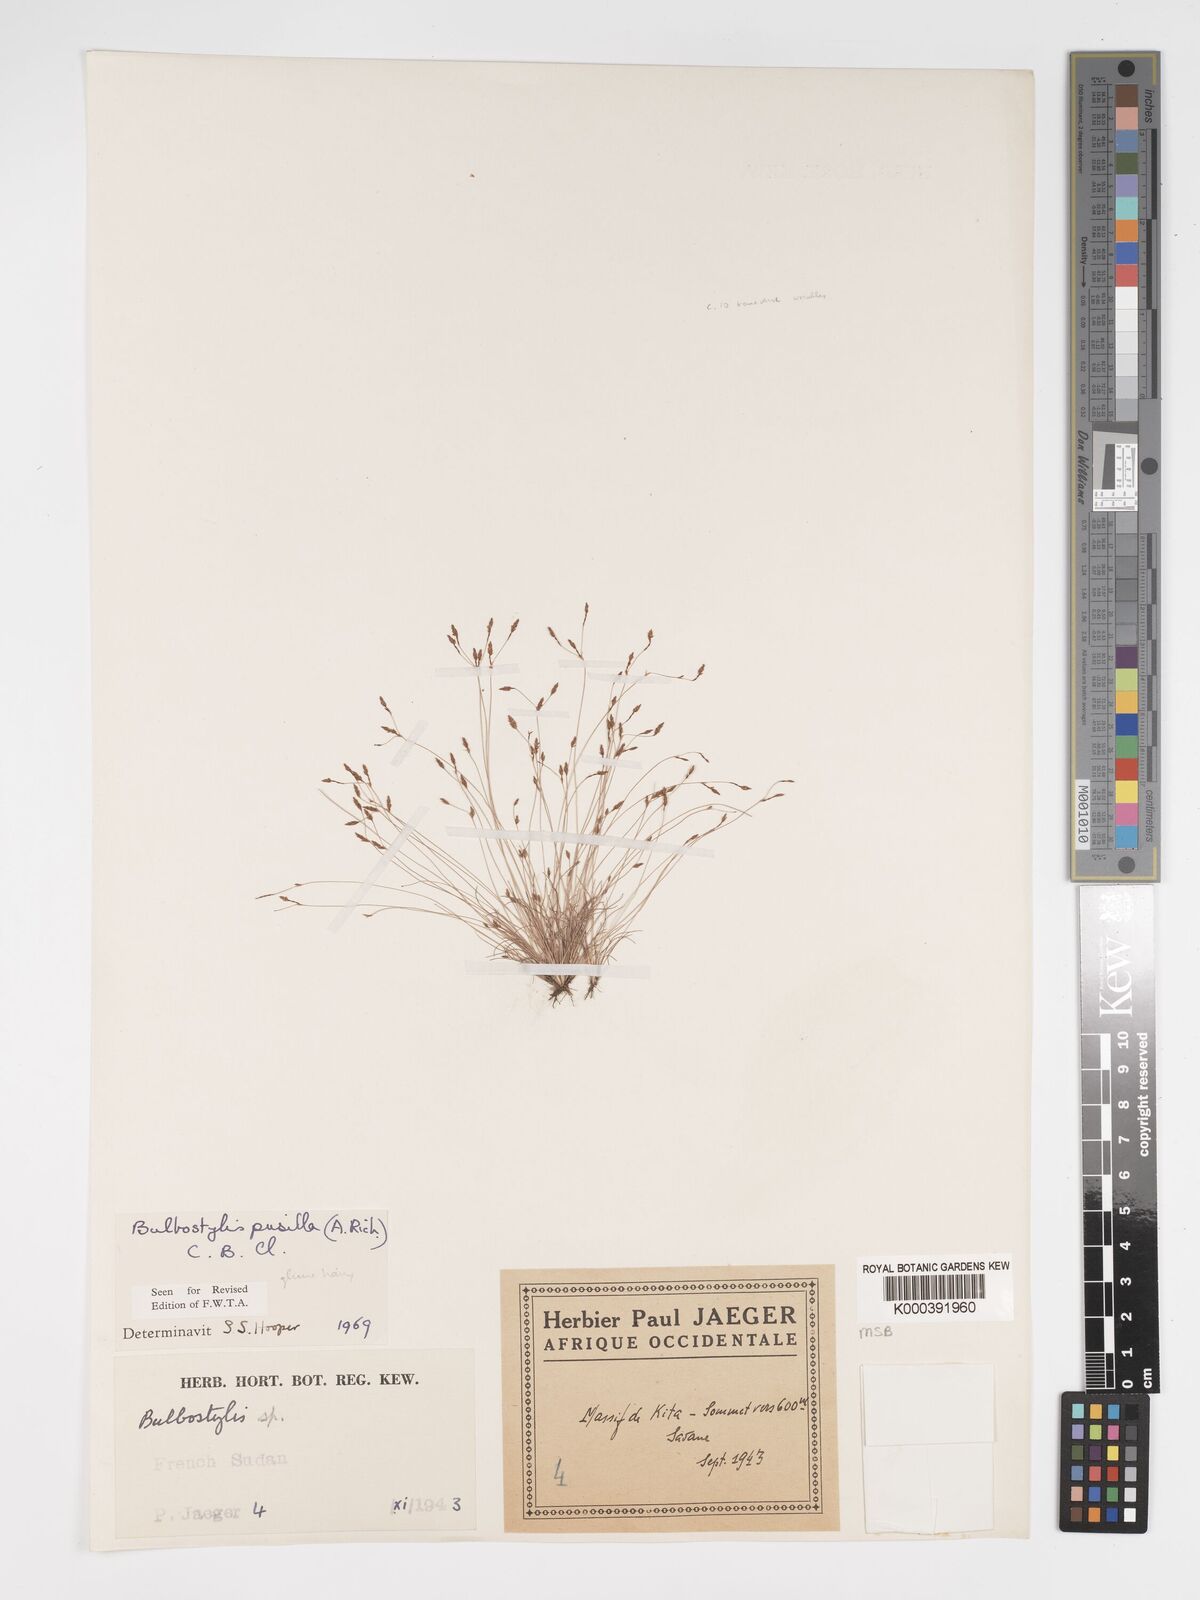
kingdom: Plantae
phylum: Tracheophyta
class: Liliopsida
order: Poales
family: Cyperaceae
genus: Bulbostylis
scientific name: Bulbostylis pusilla
